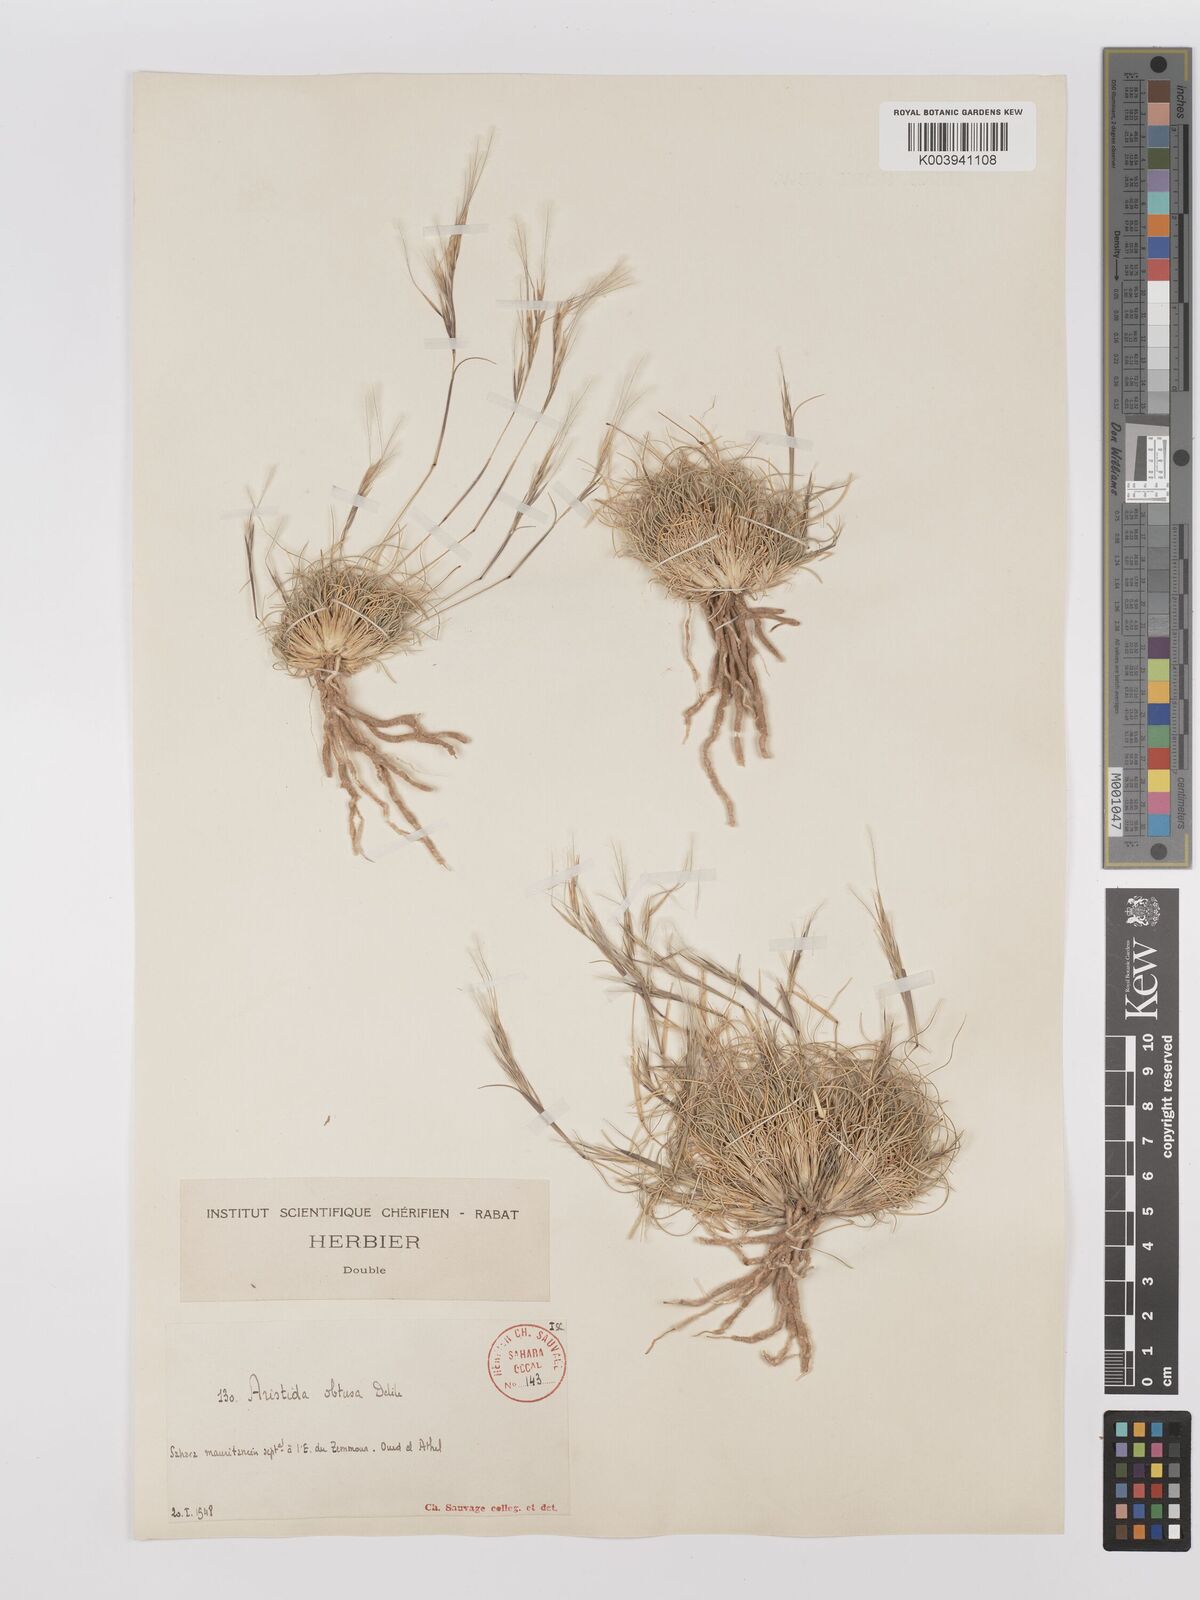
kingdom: Plantae
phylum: Tracheophyta
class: Liliopsida
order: Poales
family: Poaceae
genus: Stipagrostis
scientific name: Stipagrostis obtusa
